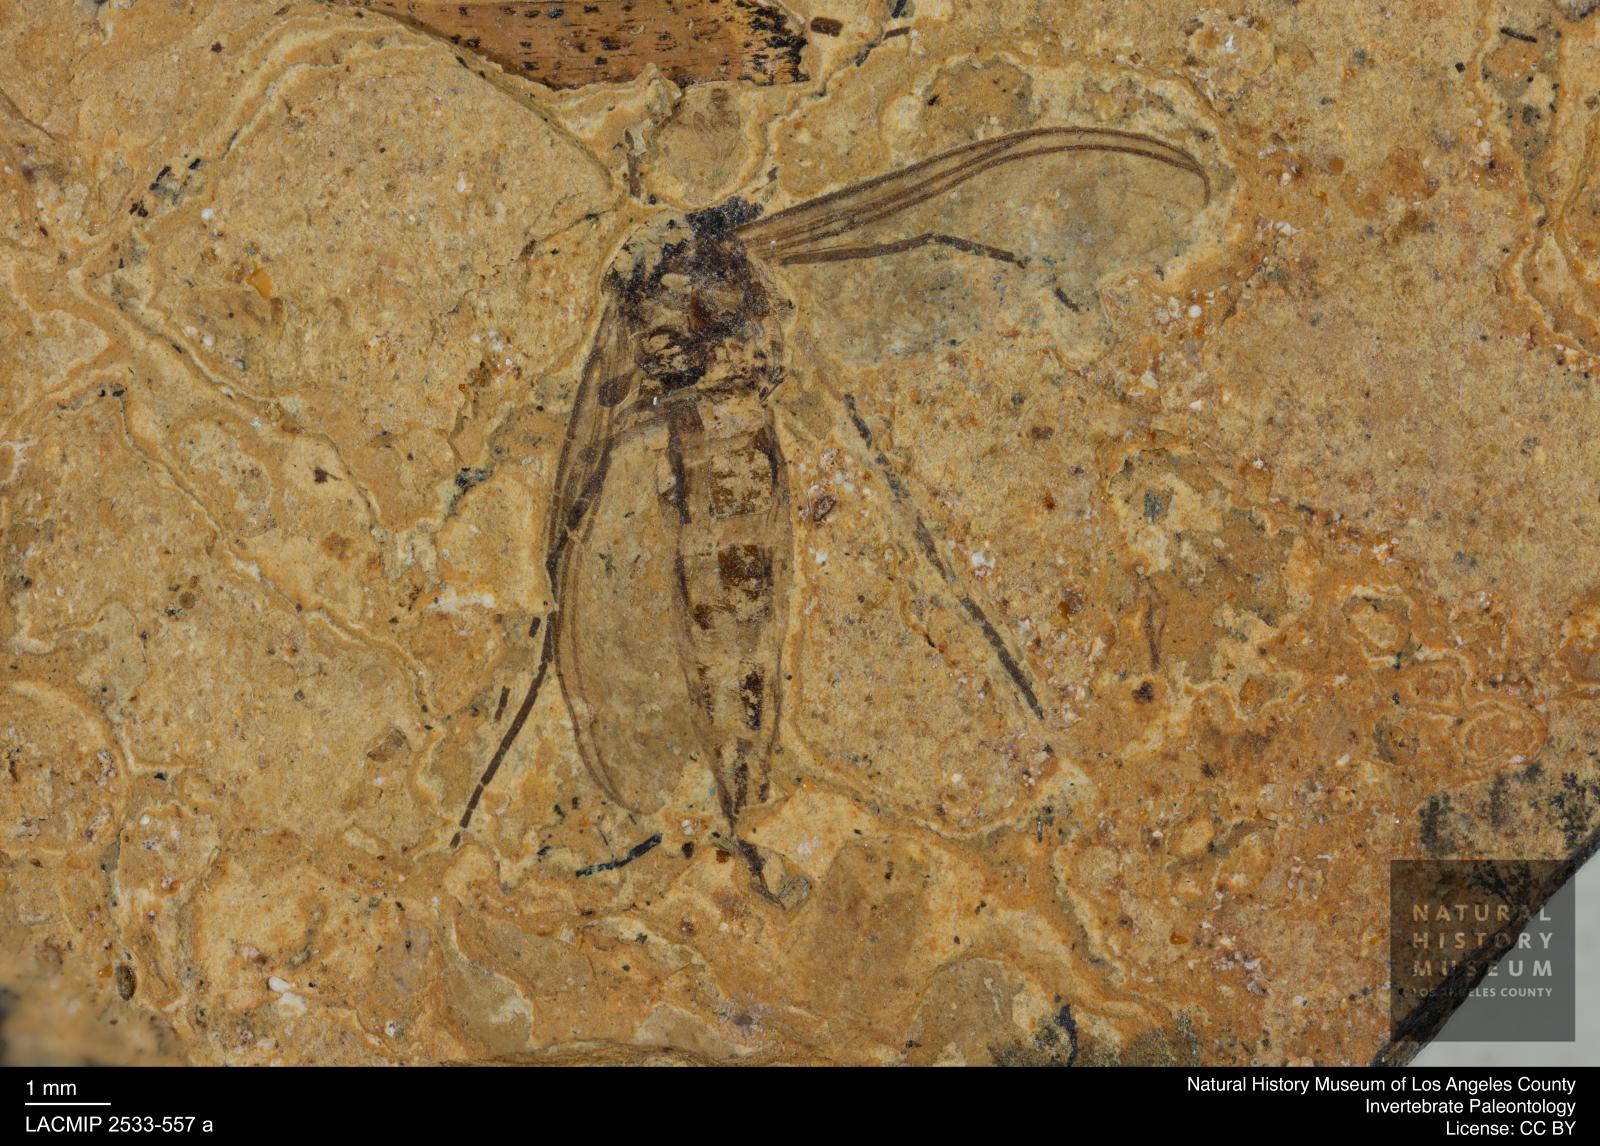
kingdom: Animalia
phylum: Arthropoda
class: Insecta
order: Diptera
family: Sciaridae
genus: Sciara
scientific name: Sciara aulica
